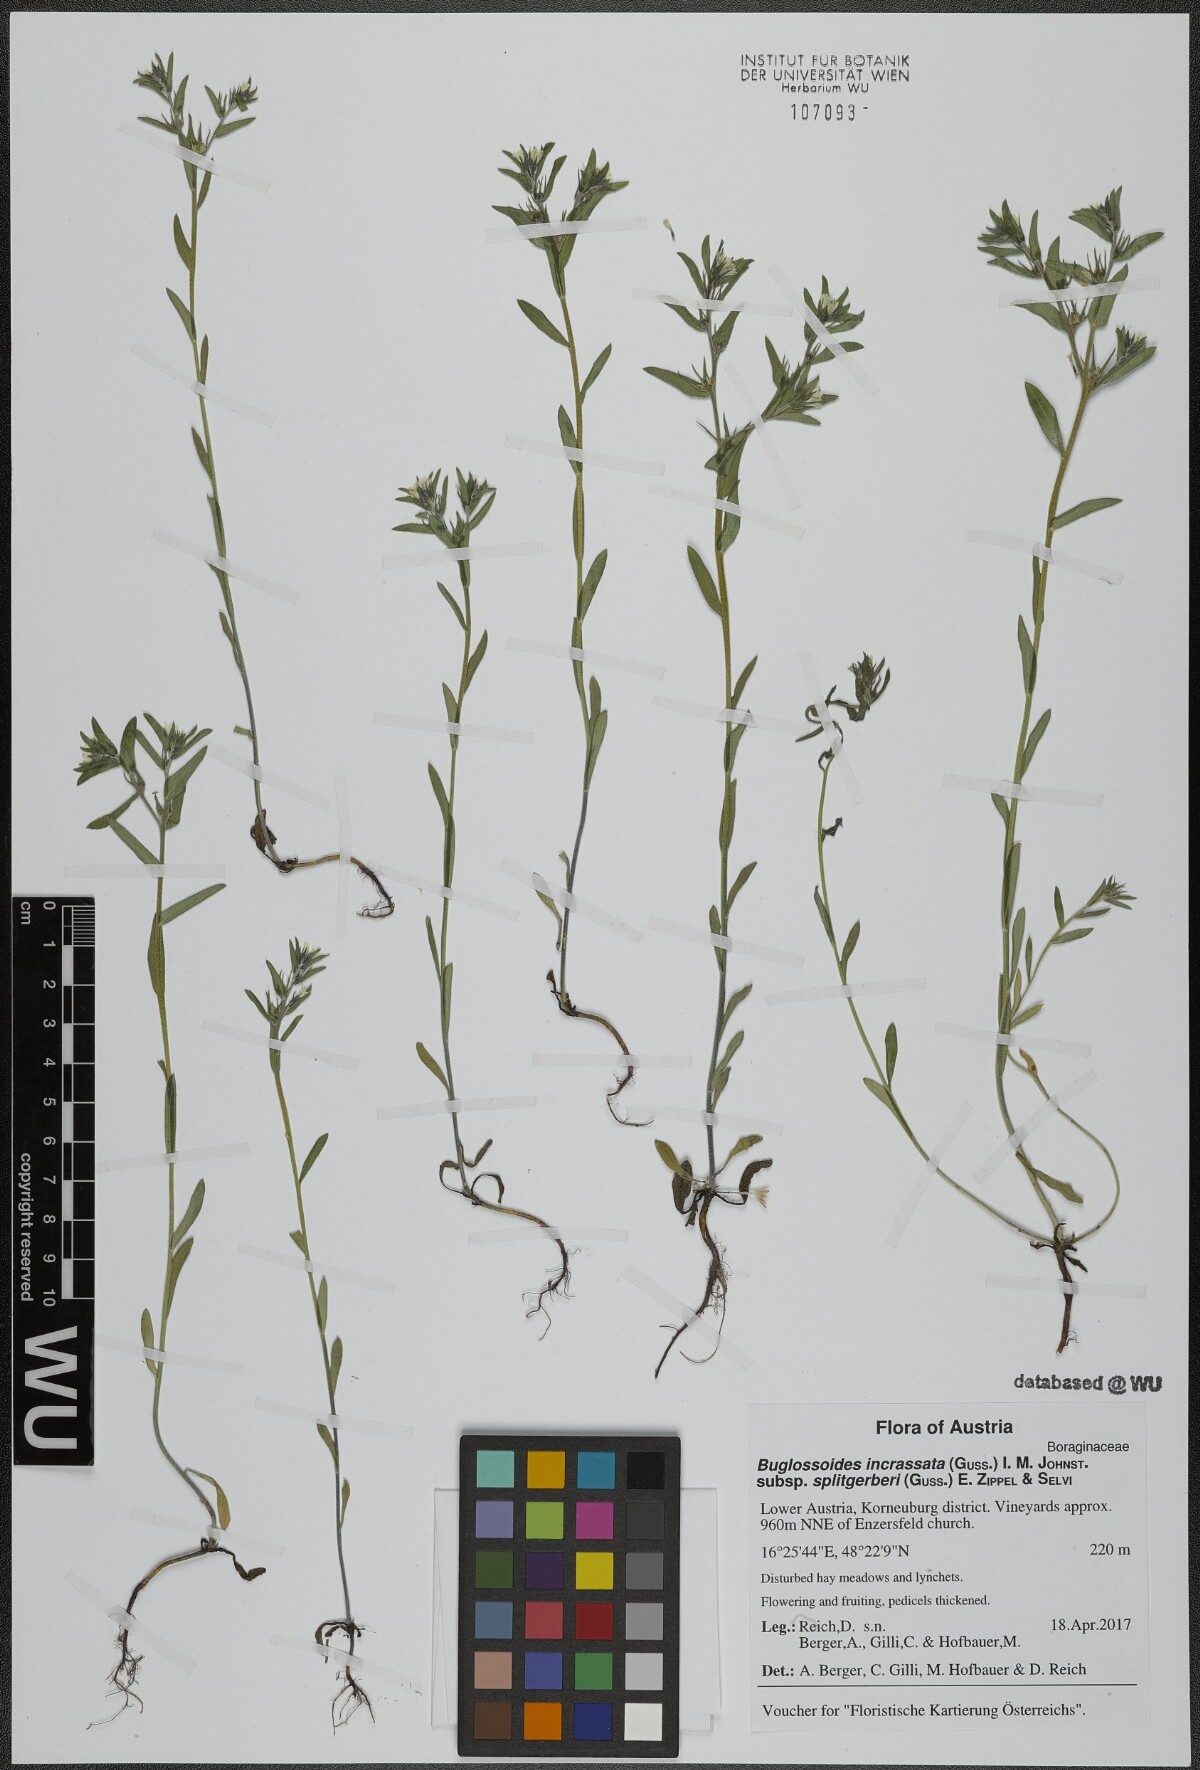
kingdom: Plantae
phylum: Tracheophyta
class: Magnoliopsida
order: Boraginales
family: Boraginaceae
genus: Buglossoides
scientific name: Buglossoides incrassata
